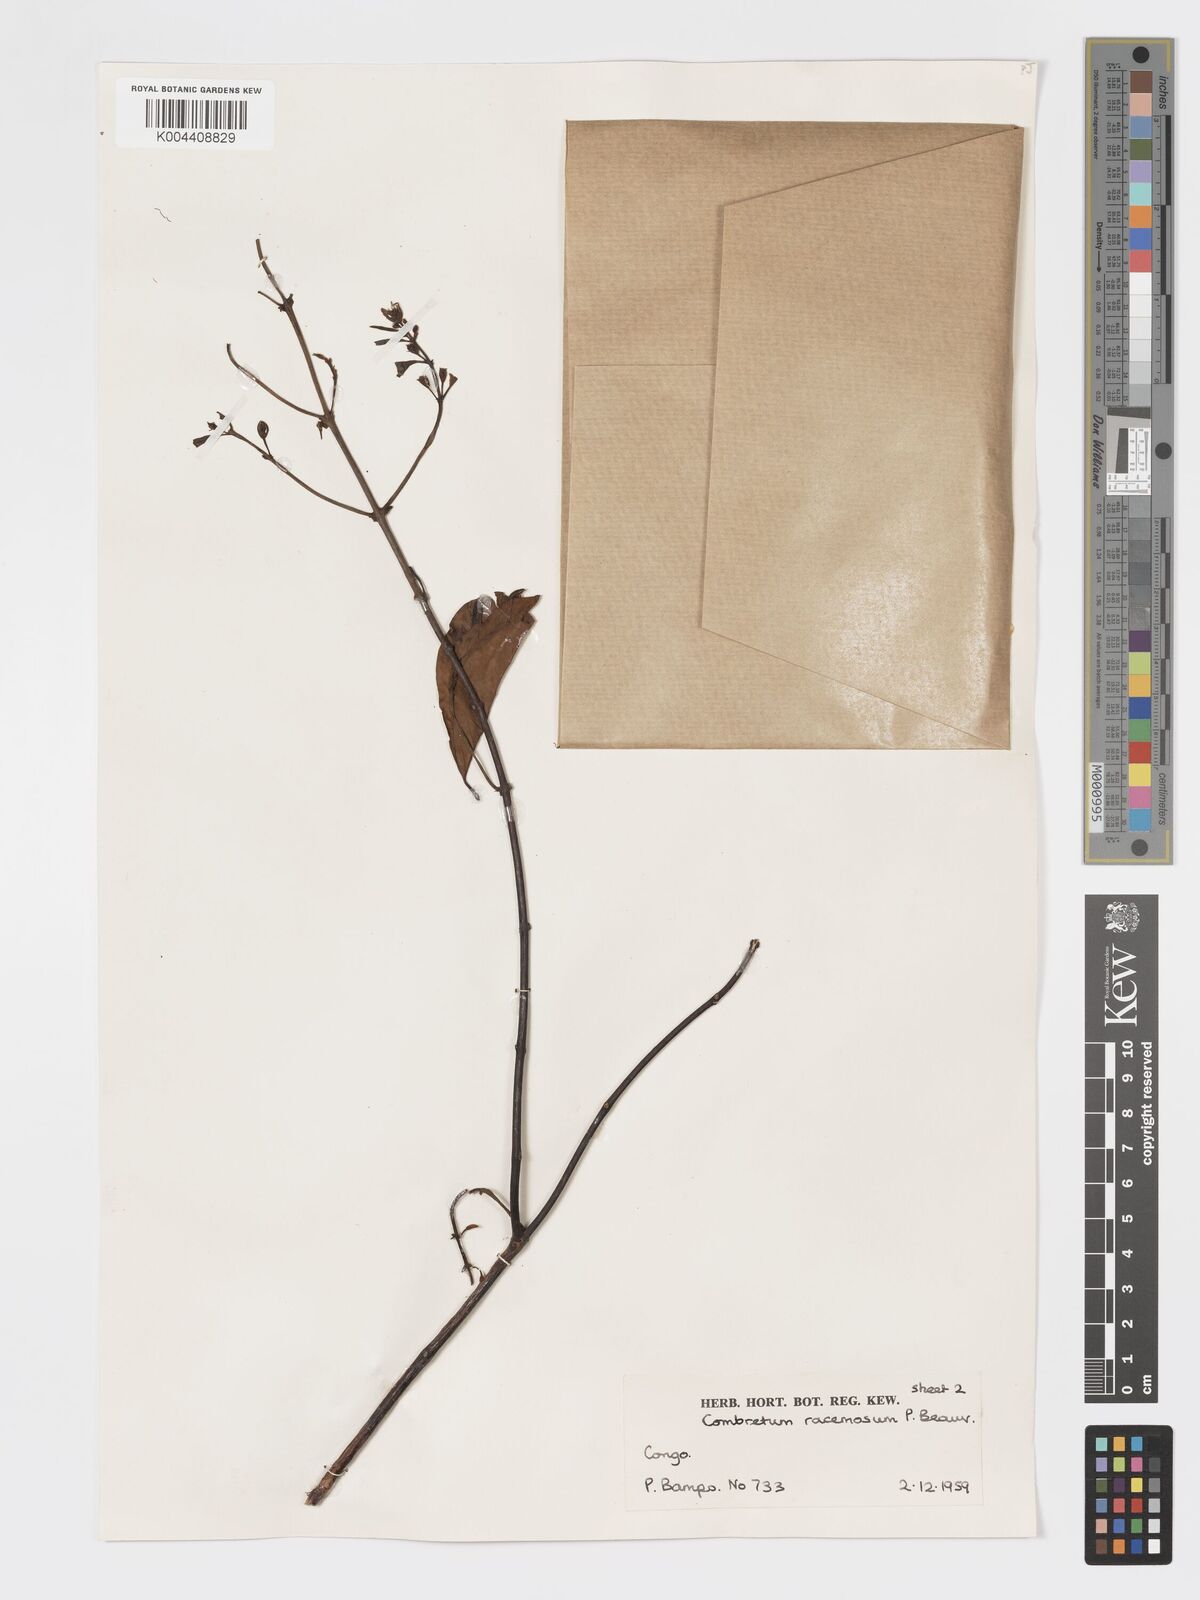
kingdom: Plantae
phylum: Tracheophyta
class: Magnoliopsida
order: Myrtales
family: Combretaceae
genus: Combretum
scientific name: Combretum racemosum
